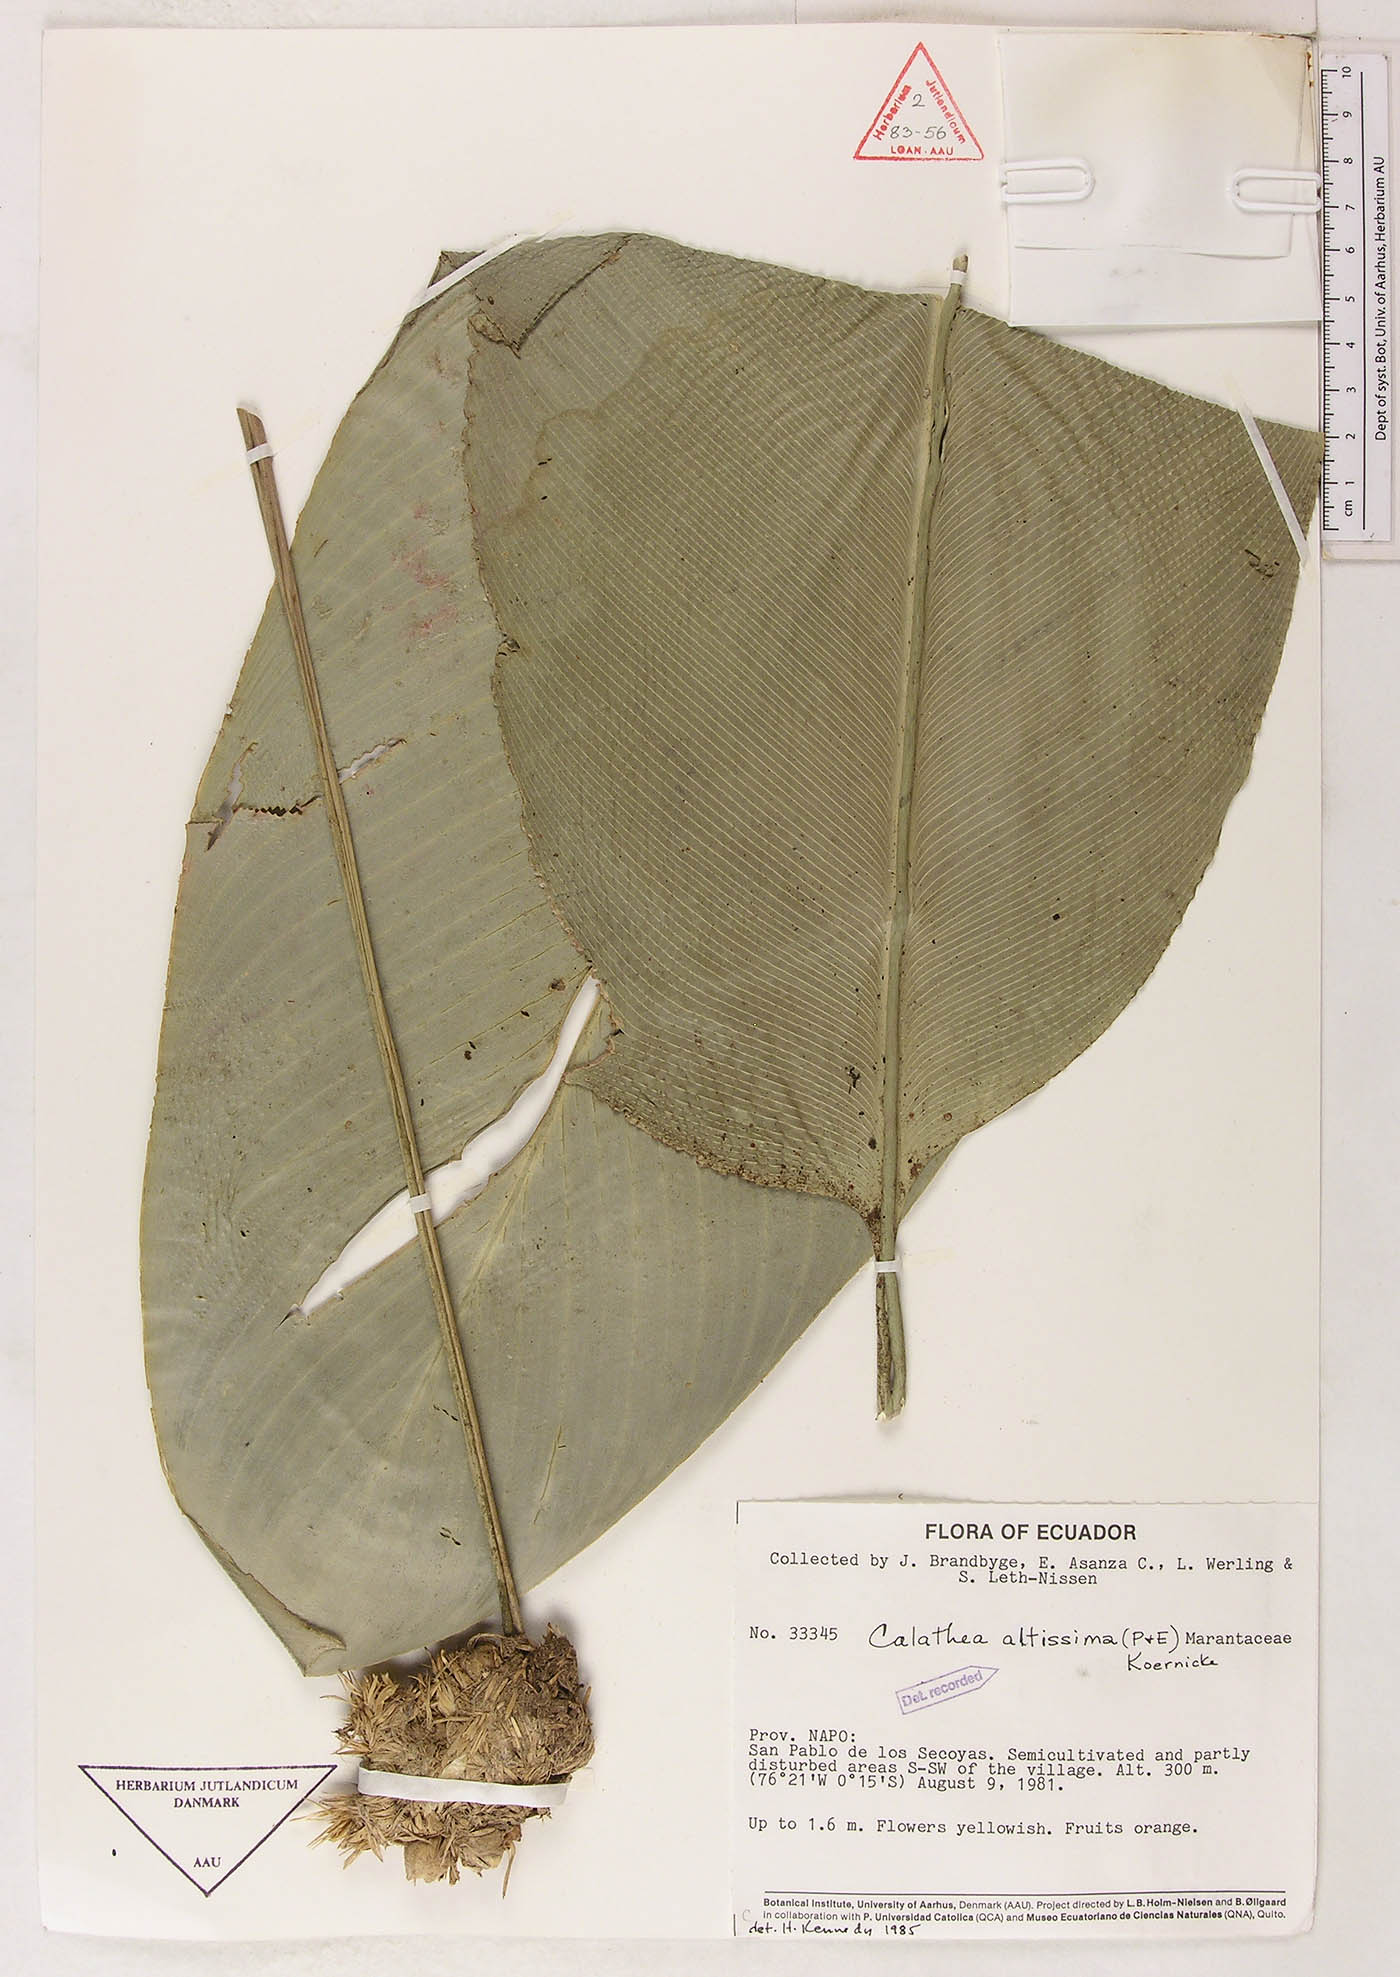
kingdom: Plantae
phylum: Tracheophyta
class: Liliopsida
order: Zingiberales
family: Marantaceae
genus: Goeppertia
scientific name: Goeppertia altissima
